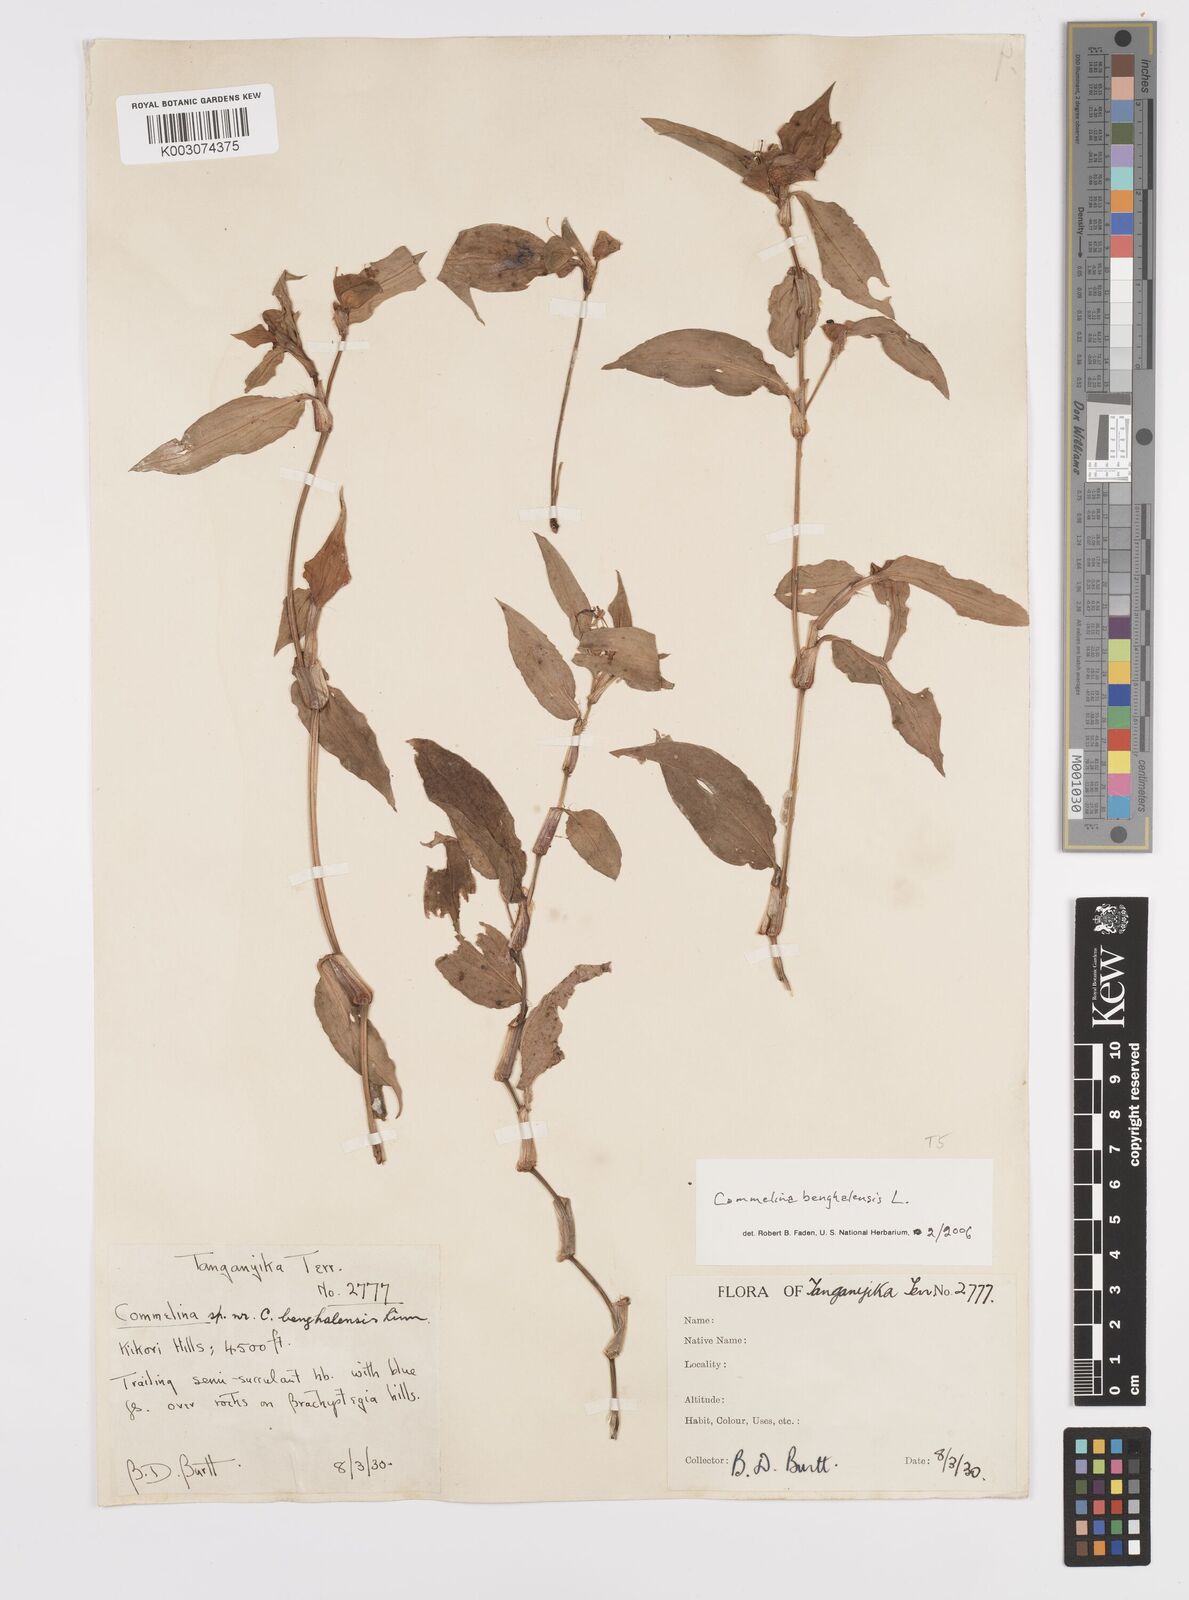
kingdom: Plantae
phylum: Tracheophyta
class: Liliopsida
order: Commelinales
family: Commelinaceae
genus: Commelina
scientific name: Commelina benghalensis
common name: Jio
